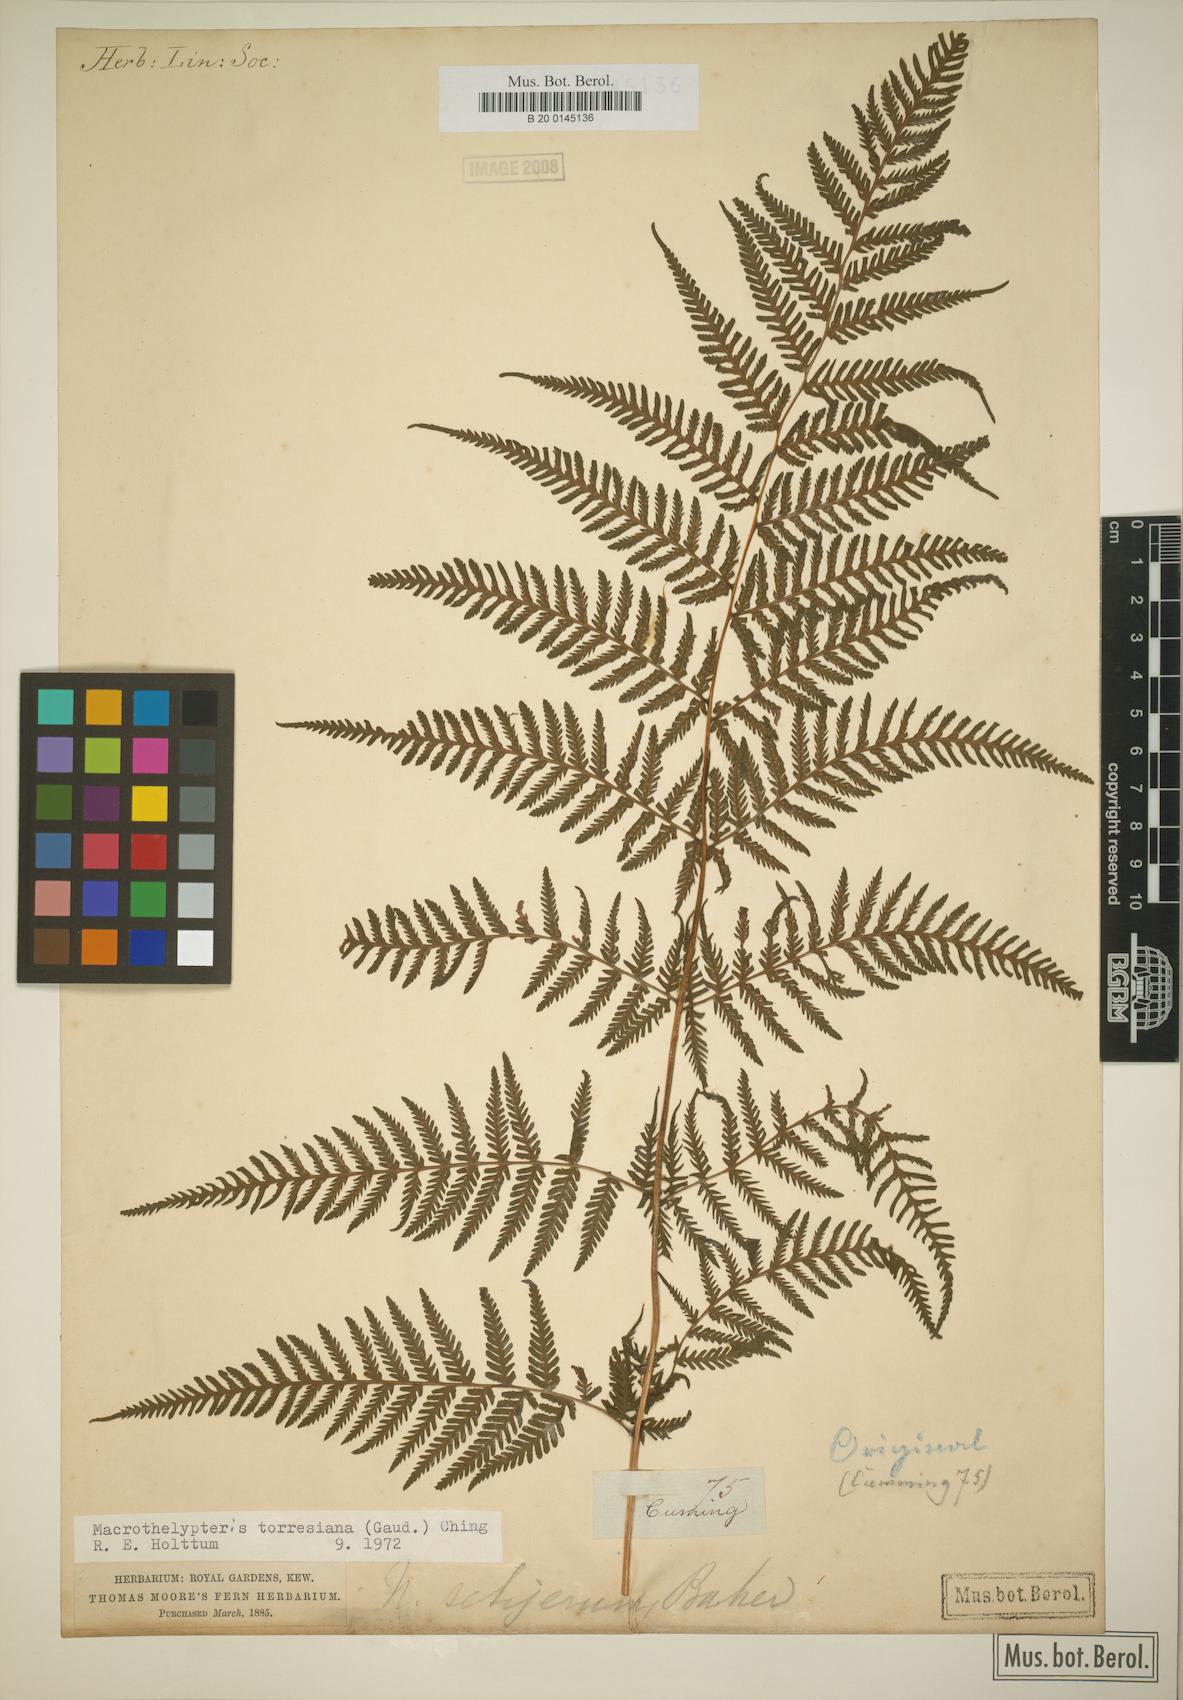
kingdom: Plantae
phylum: Tracheophyta
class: Polypodiopsida
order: Polypodiales
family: Thelypteridaceae
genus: Macrothelypteris
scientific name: Macrothelypteris torresiana
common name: Swordfern
